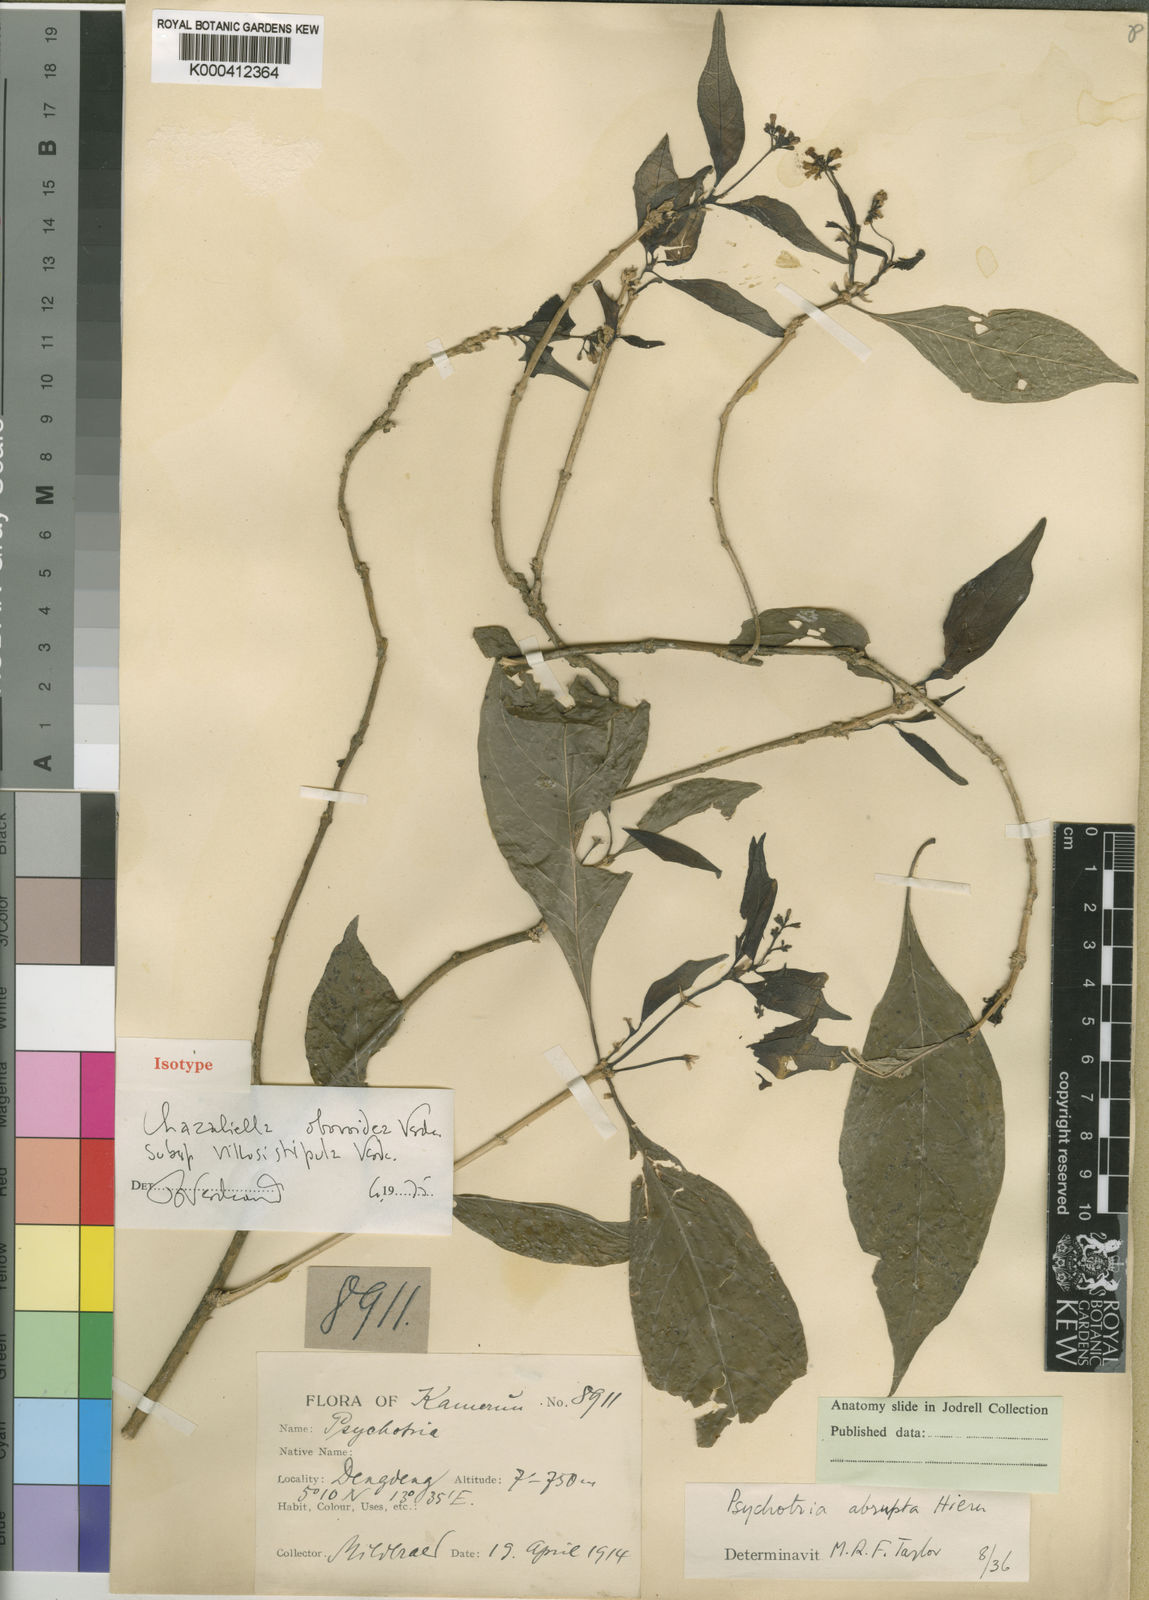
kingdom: Plantae
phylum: Tracheophyta
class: Magnoliopsida
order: Gentianales
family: Rubiaceae
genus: Eumachia
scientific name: Eumachia obovoidea
